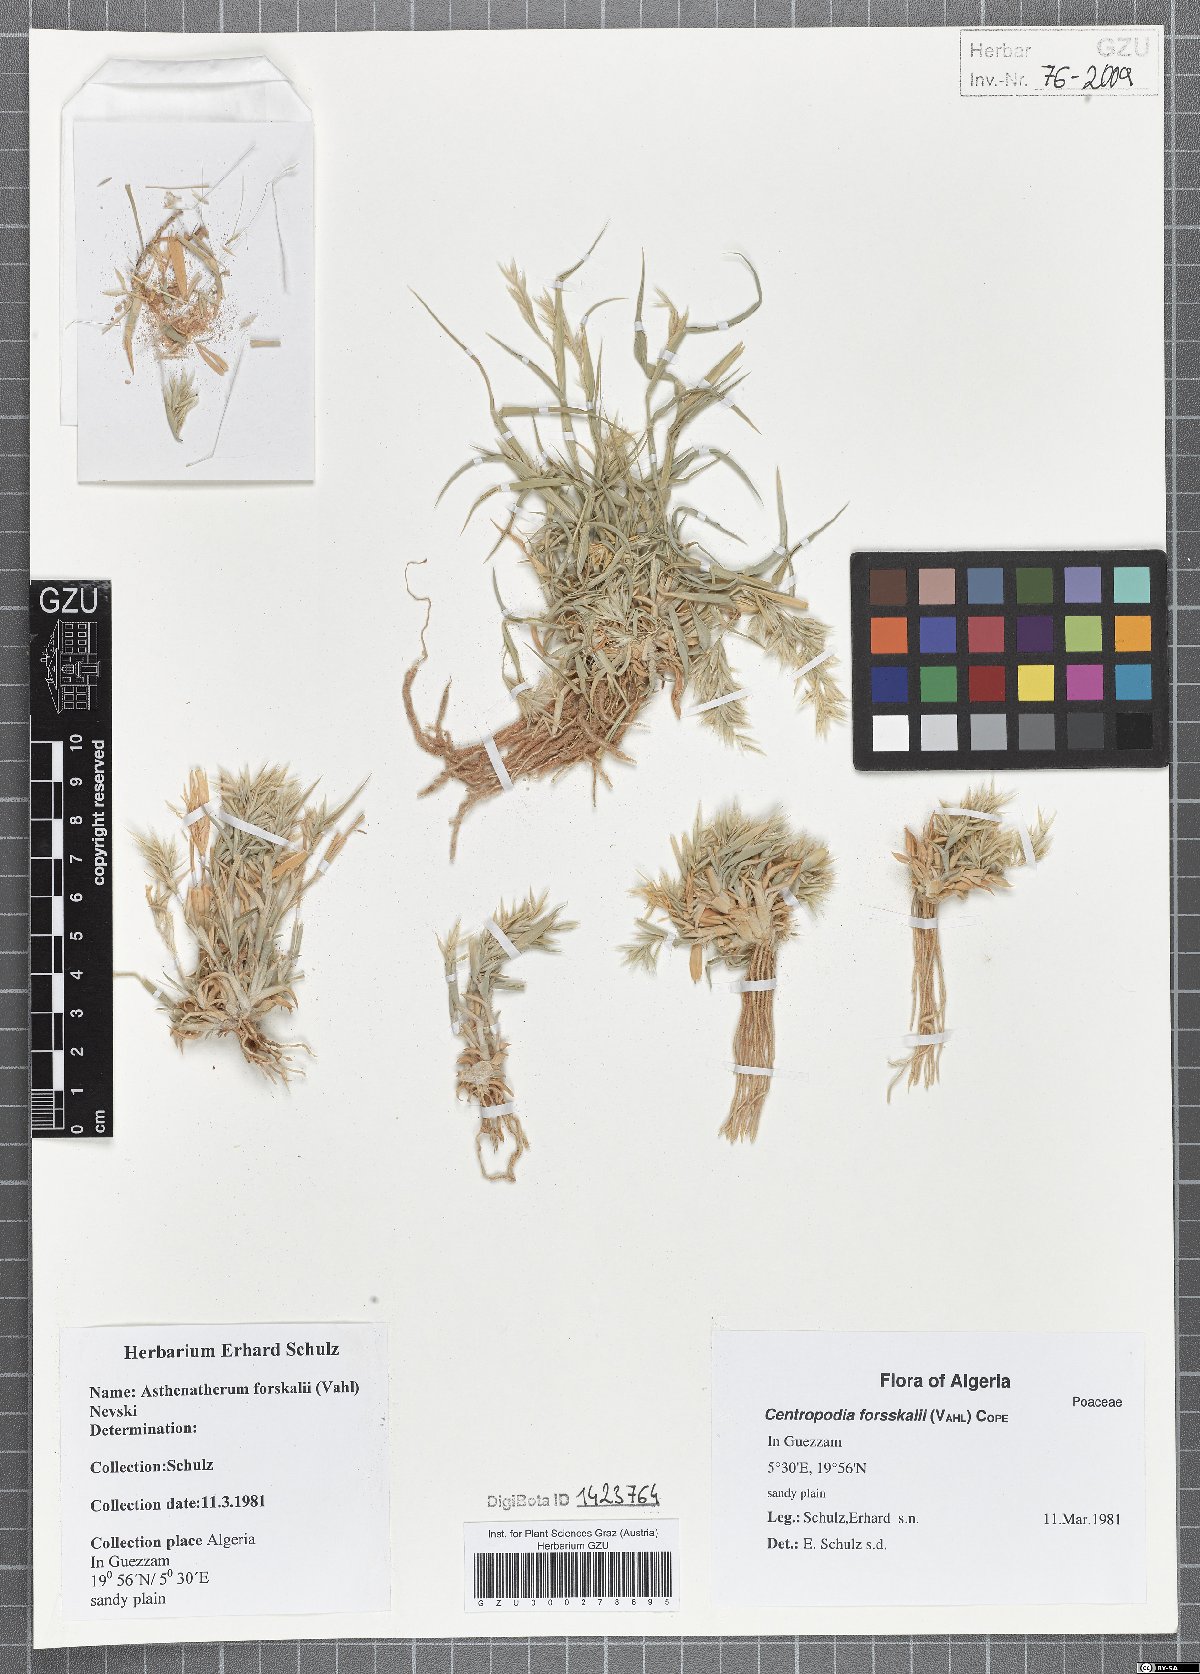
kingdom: Plantae
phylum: Tracheophyta
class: Liliopsida
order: Poales
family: Poaceae
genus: Centropodia
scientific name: Centropodia forsskalii
